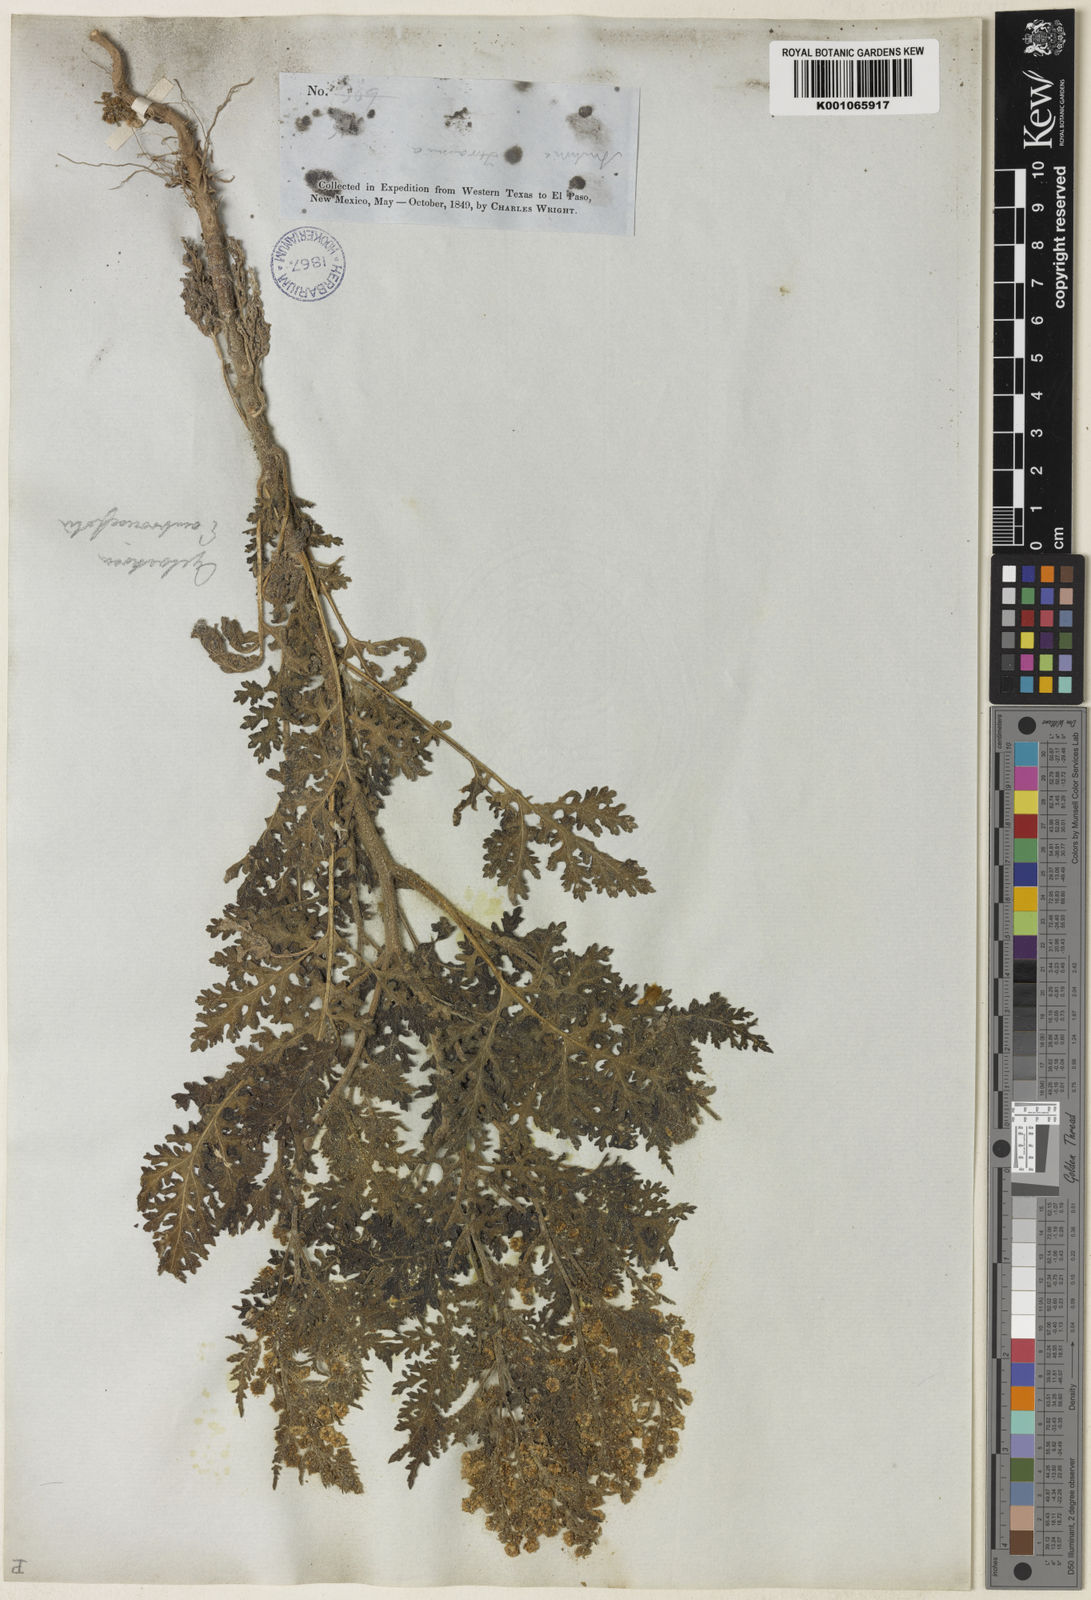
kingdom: Plantae
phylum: Tracheophyta
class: Magnoliopsida
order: Asterales
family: Asteraceae
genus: Hedosyne
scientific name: Hedosyne ambrosiifolia
